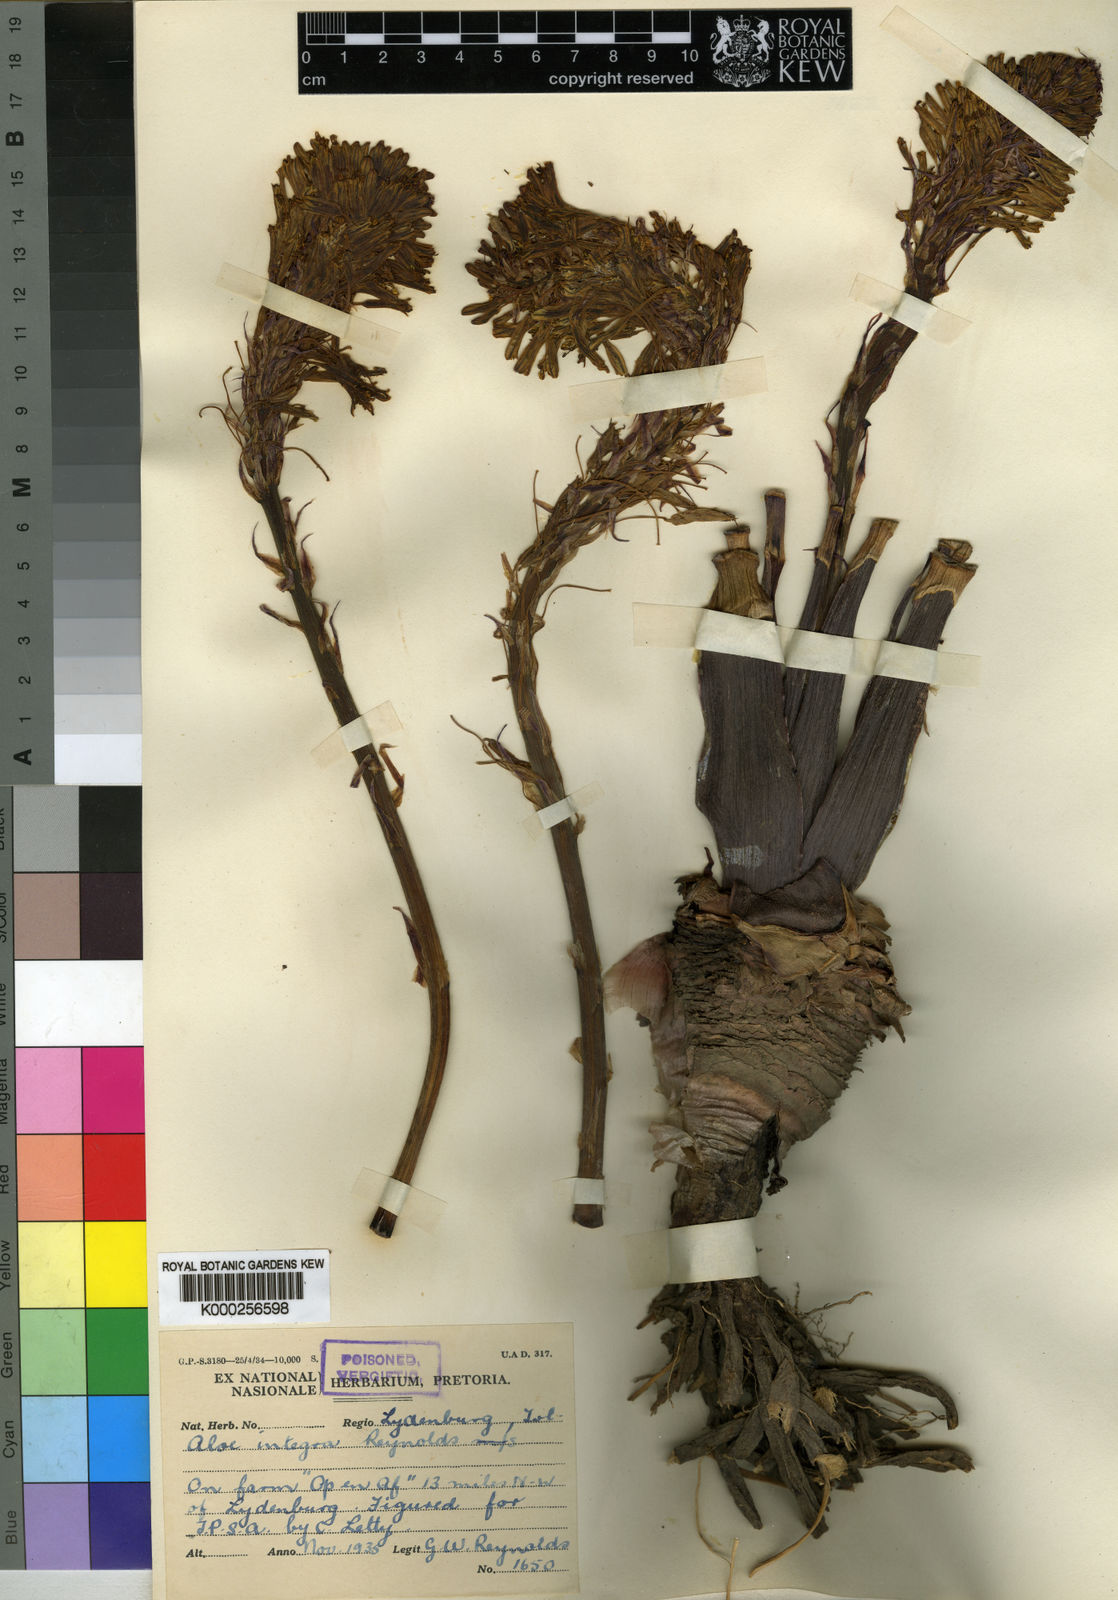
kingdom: Plantae
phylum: Tracheophyta
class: Liliopsida
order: Asparagales
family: Asphodelaceae
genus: Aloe
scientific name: Aloe integra
